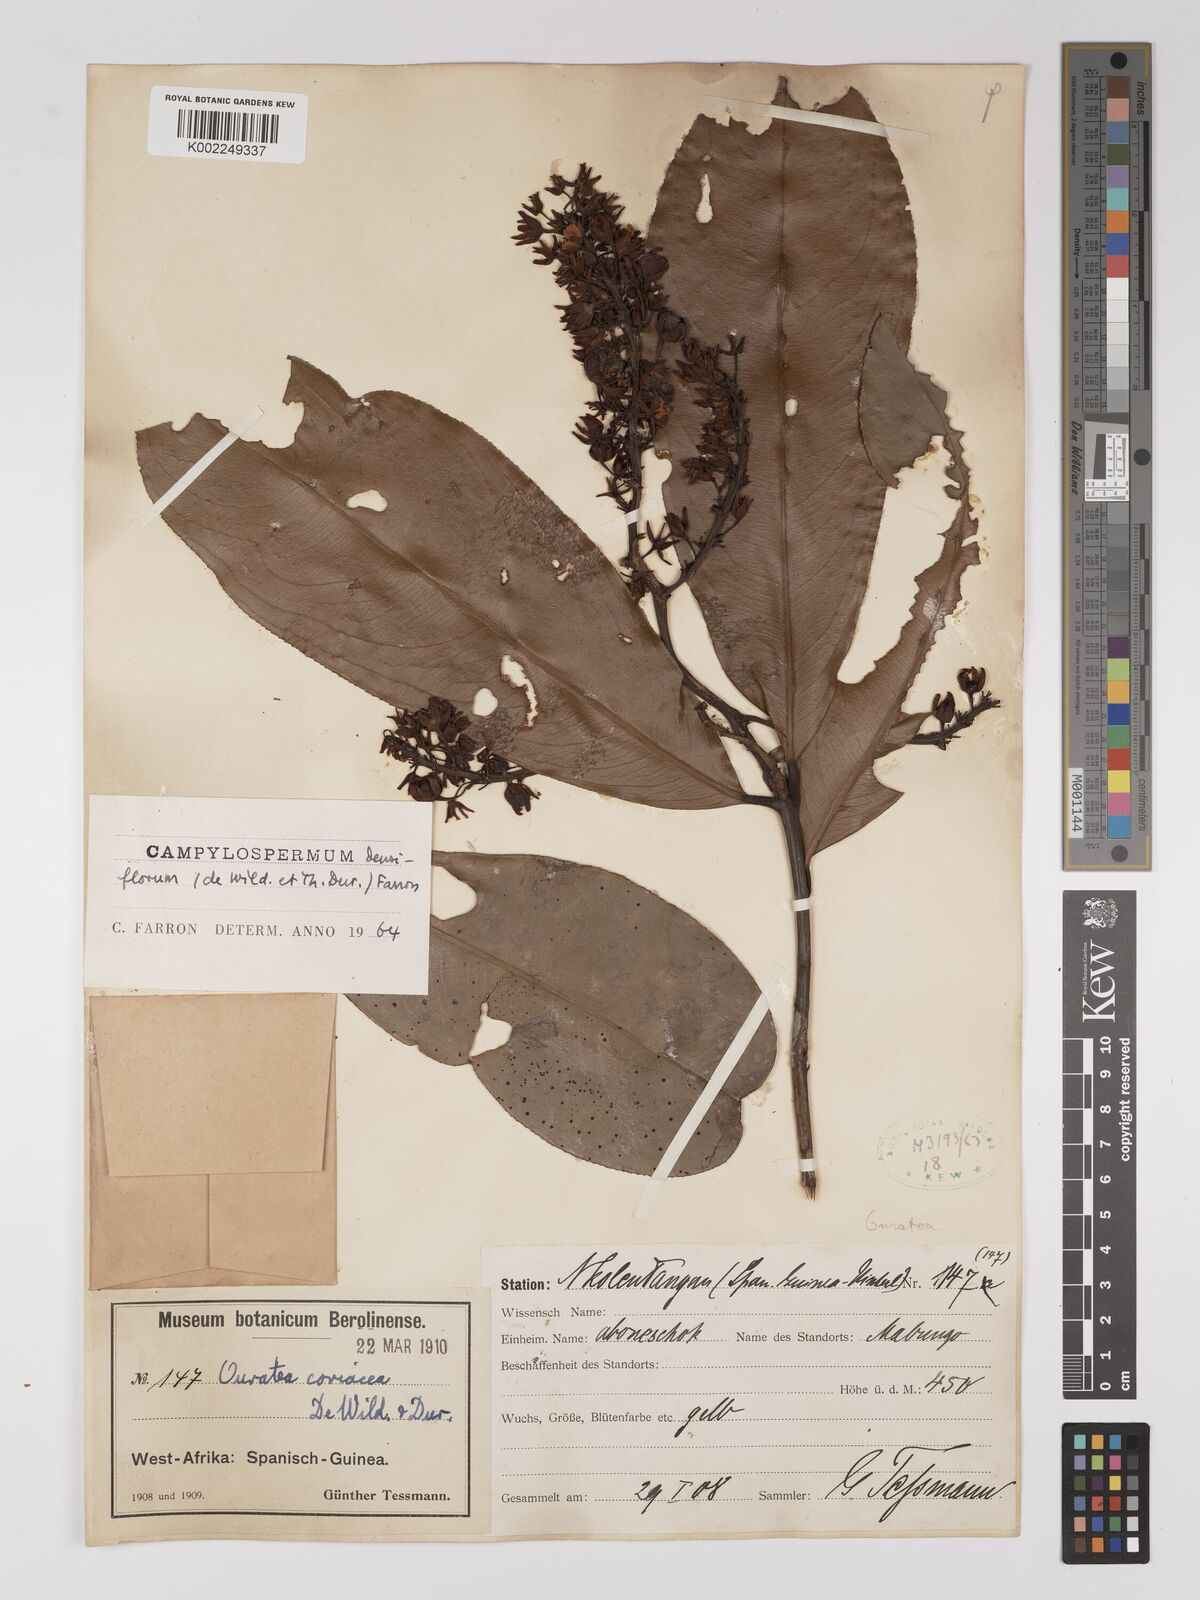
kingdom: Plantae
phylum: Tracheophyta
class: Magnoliopsida
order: Malpighiales
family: Ochnaceae
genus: Gomphia
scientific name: Gomphia densiflora
